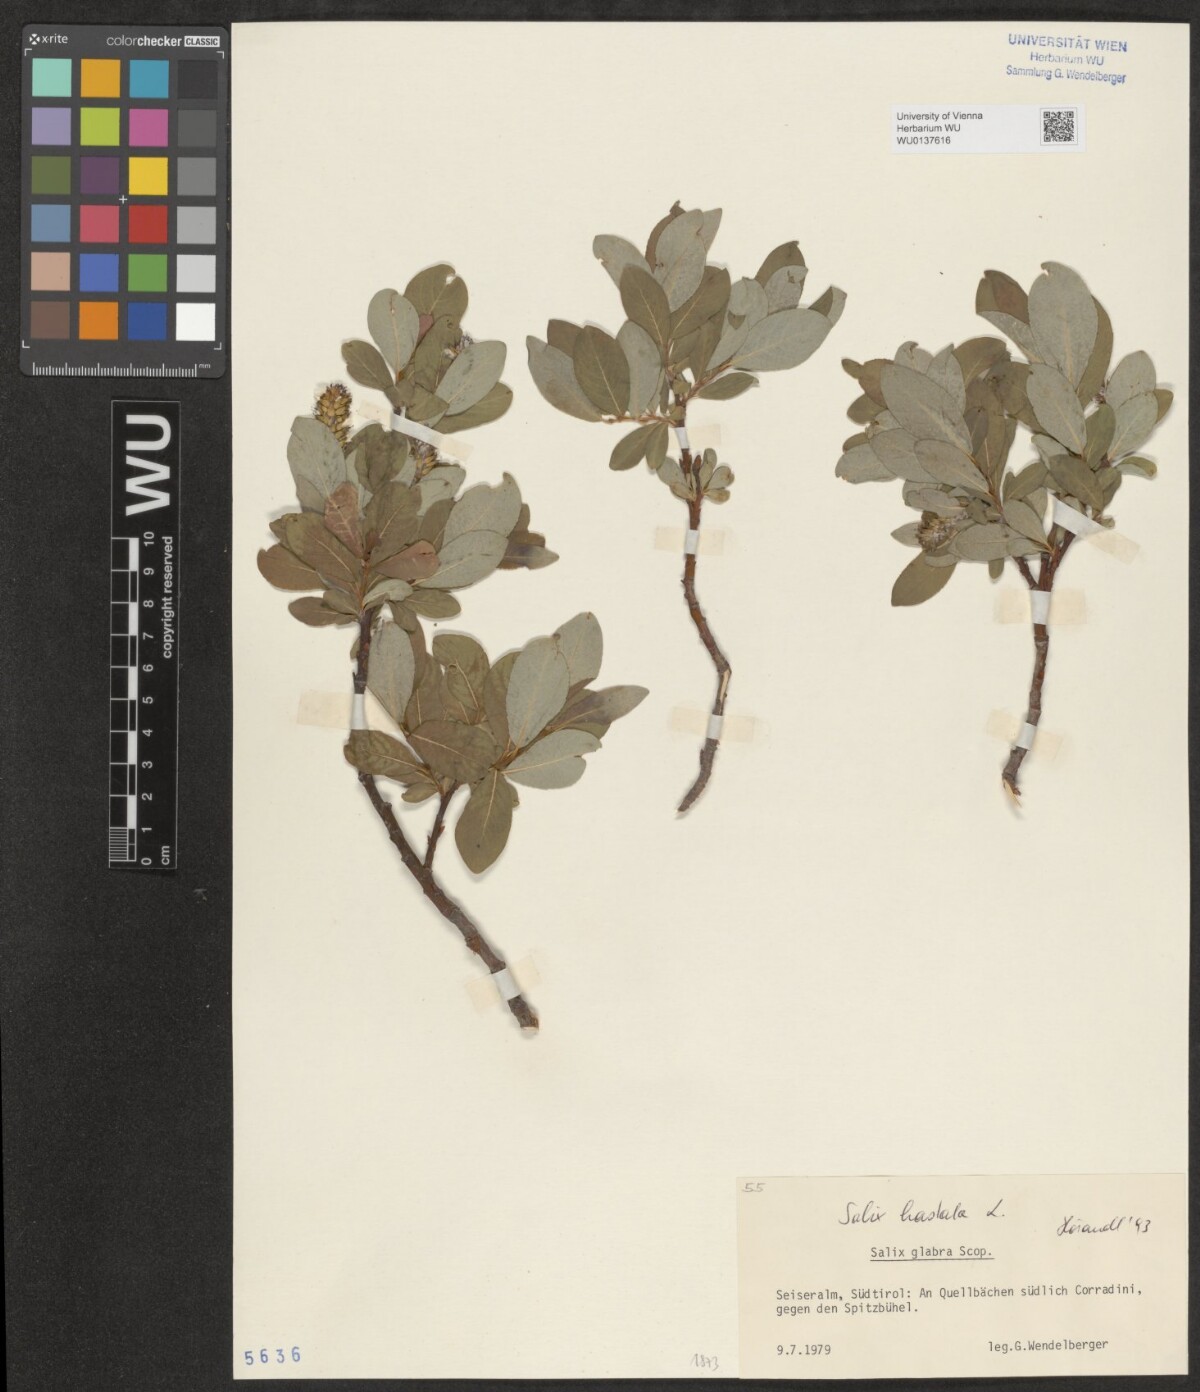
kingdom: Plantae
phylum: Tracheophyta
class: Magnoliopsida
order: Malpighiales
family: Salicaceae
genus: Salix
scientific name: Salix hastata
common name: Halberd willow
